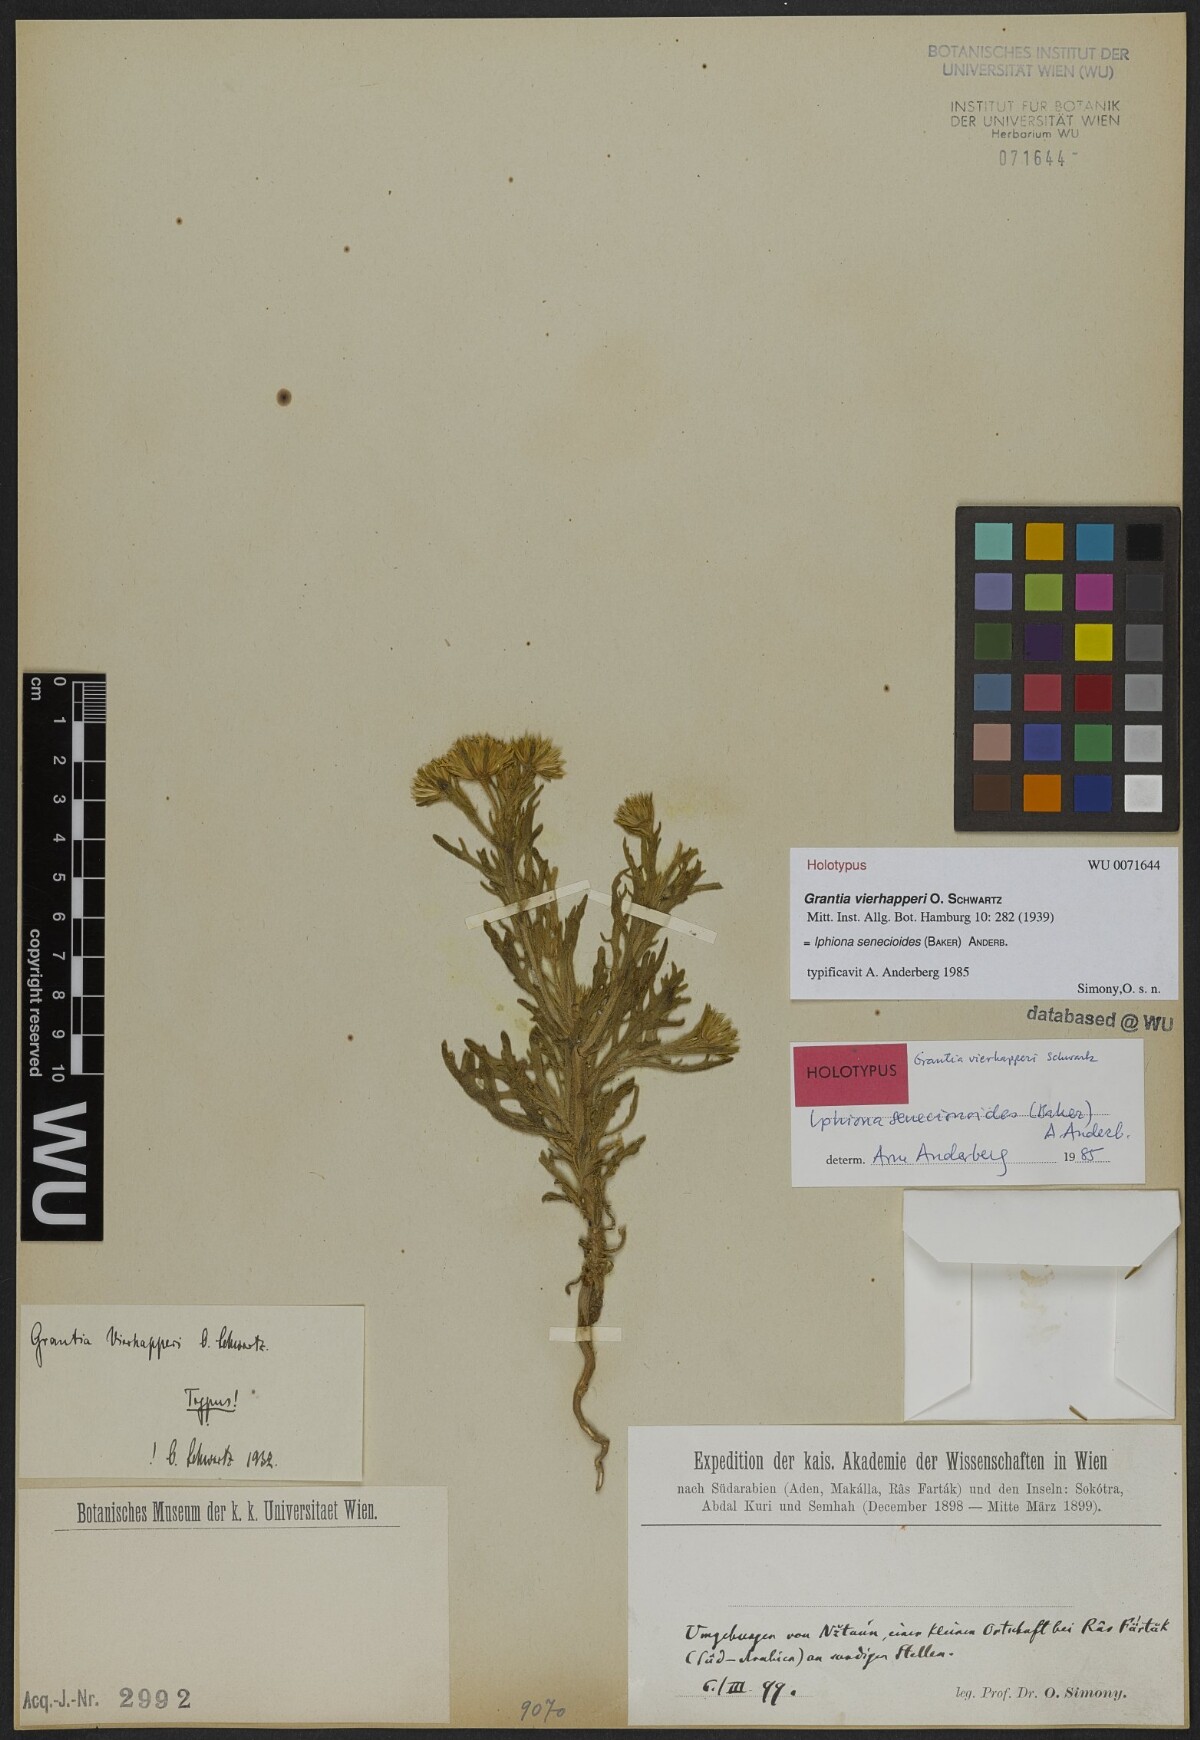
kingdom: Plantae
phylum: Tracheophyta
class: Magnoliopsida
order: Asterales
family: Asteraceae
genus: Iphiona
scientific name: Iphiona senecionoides
